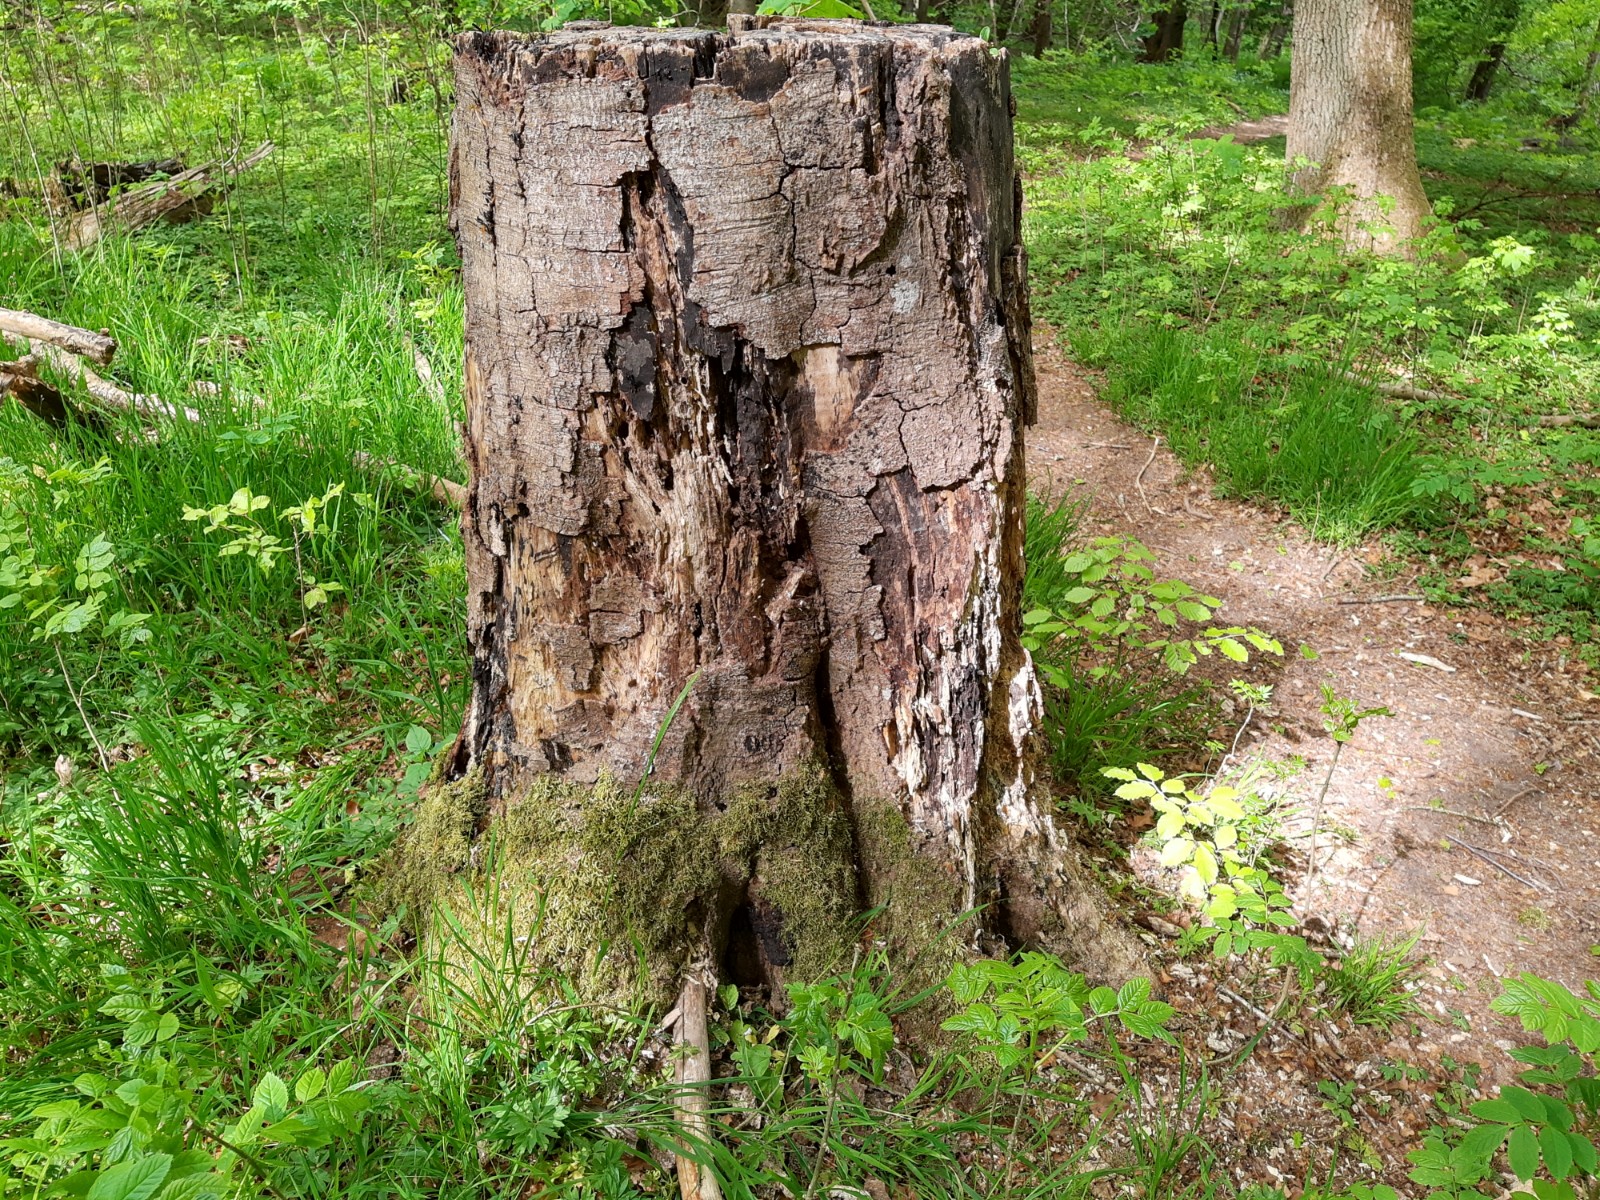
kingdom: Fungi
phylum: Ascomycota
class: Sordariomycetes
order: Xylariales
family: Xylariaceae
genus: Kretzschmaria
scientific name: Kretzschmaria deusta
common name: stor kulsvamp
